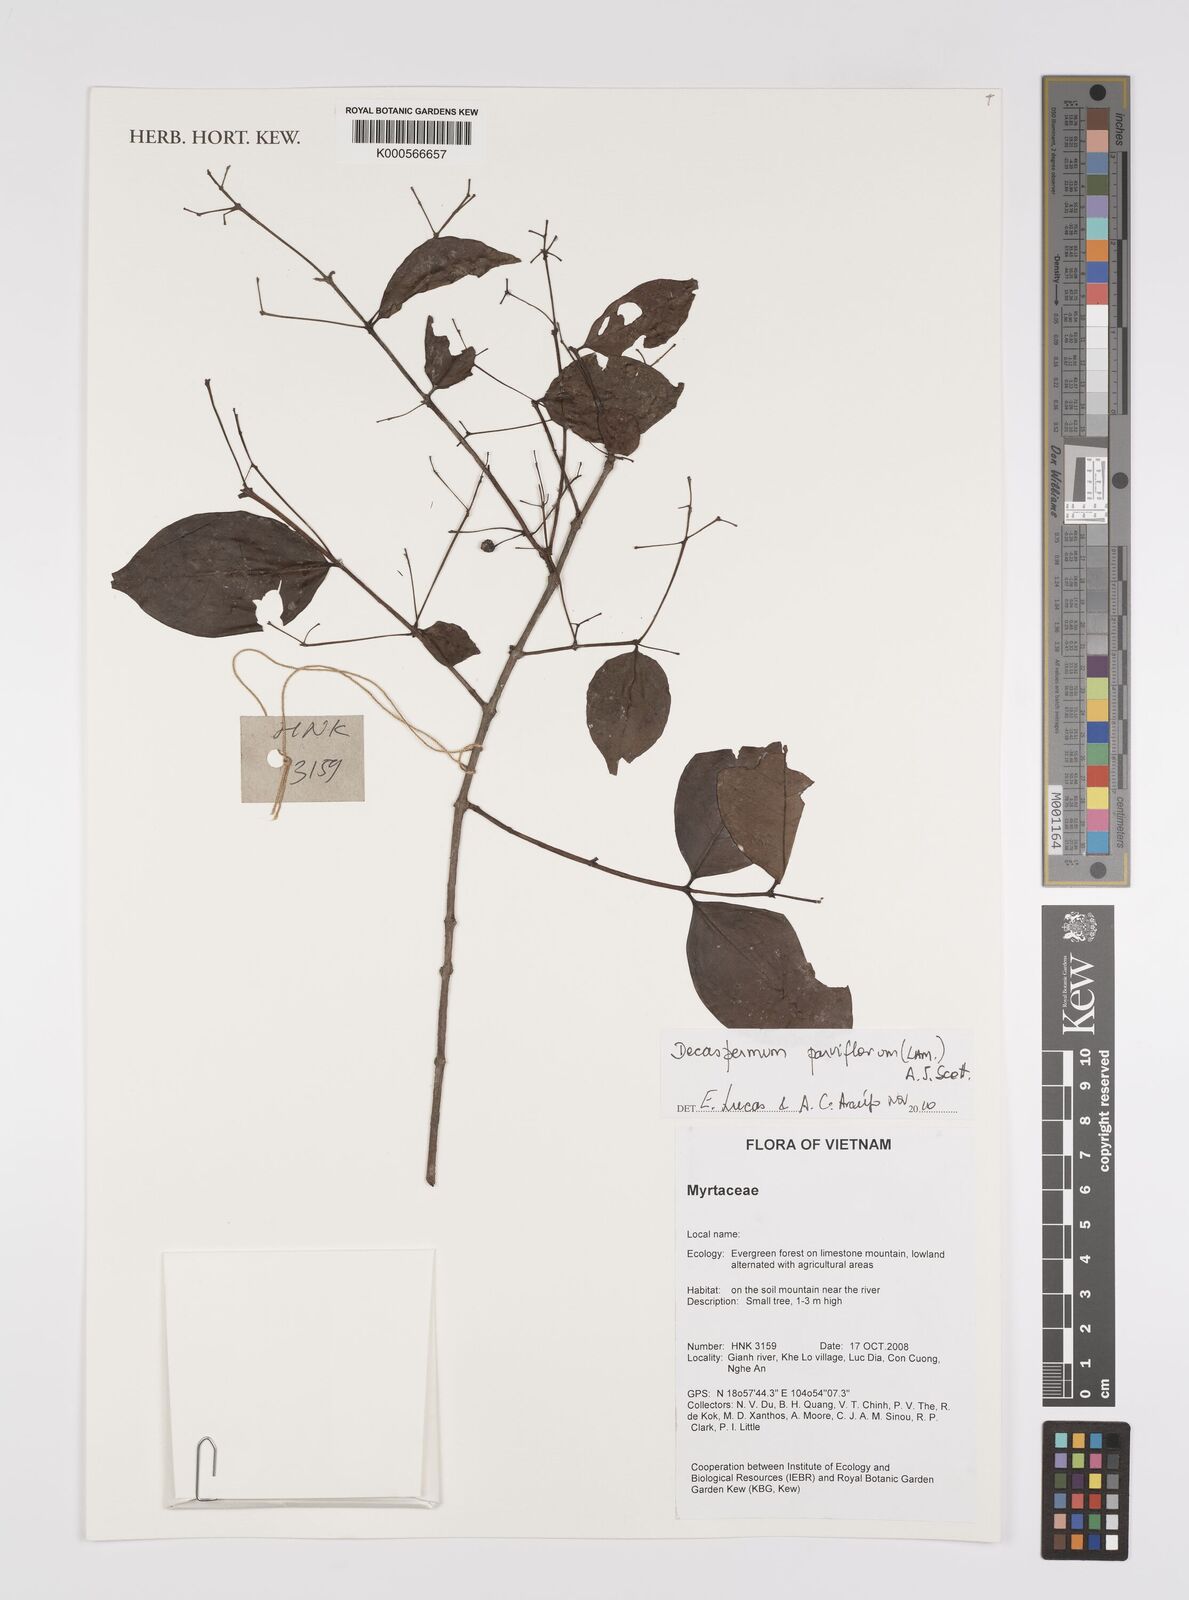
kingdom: Plantae
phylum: Tracheophyta
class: Magnoliopsida
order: Myrtales
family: Myrtaceae
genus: Decaspermum
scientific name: Decaspermum parviflorum
